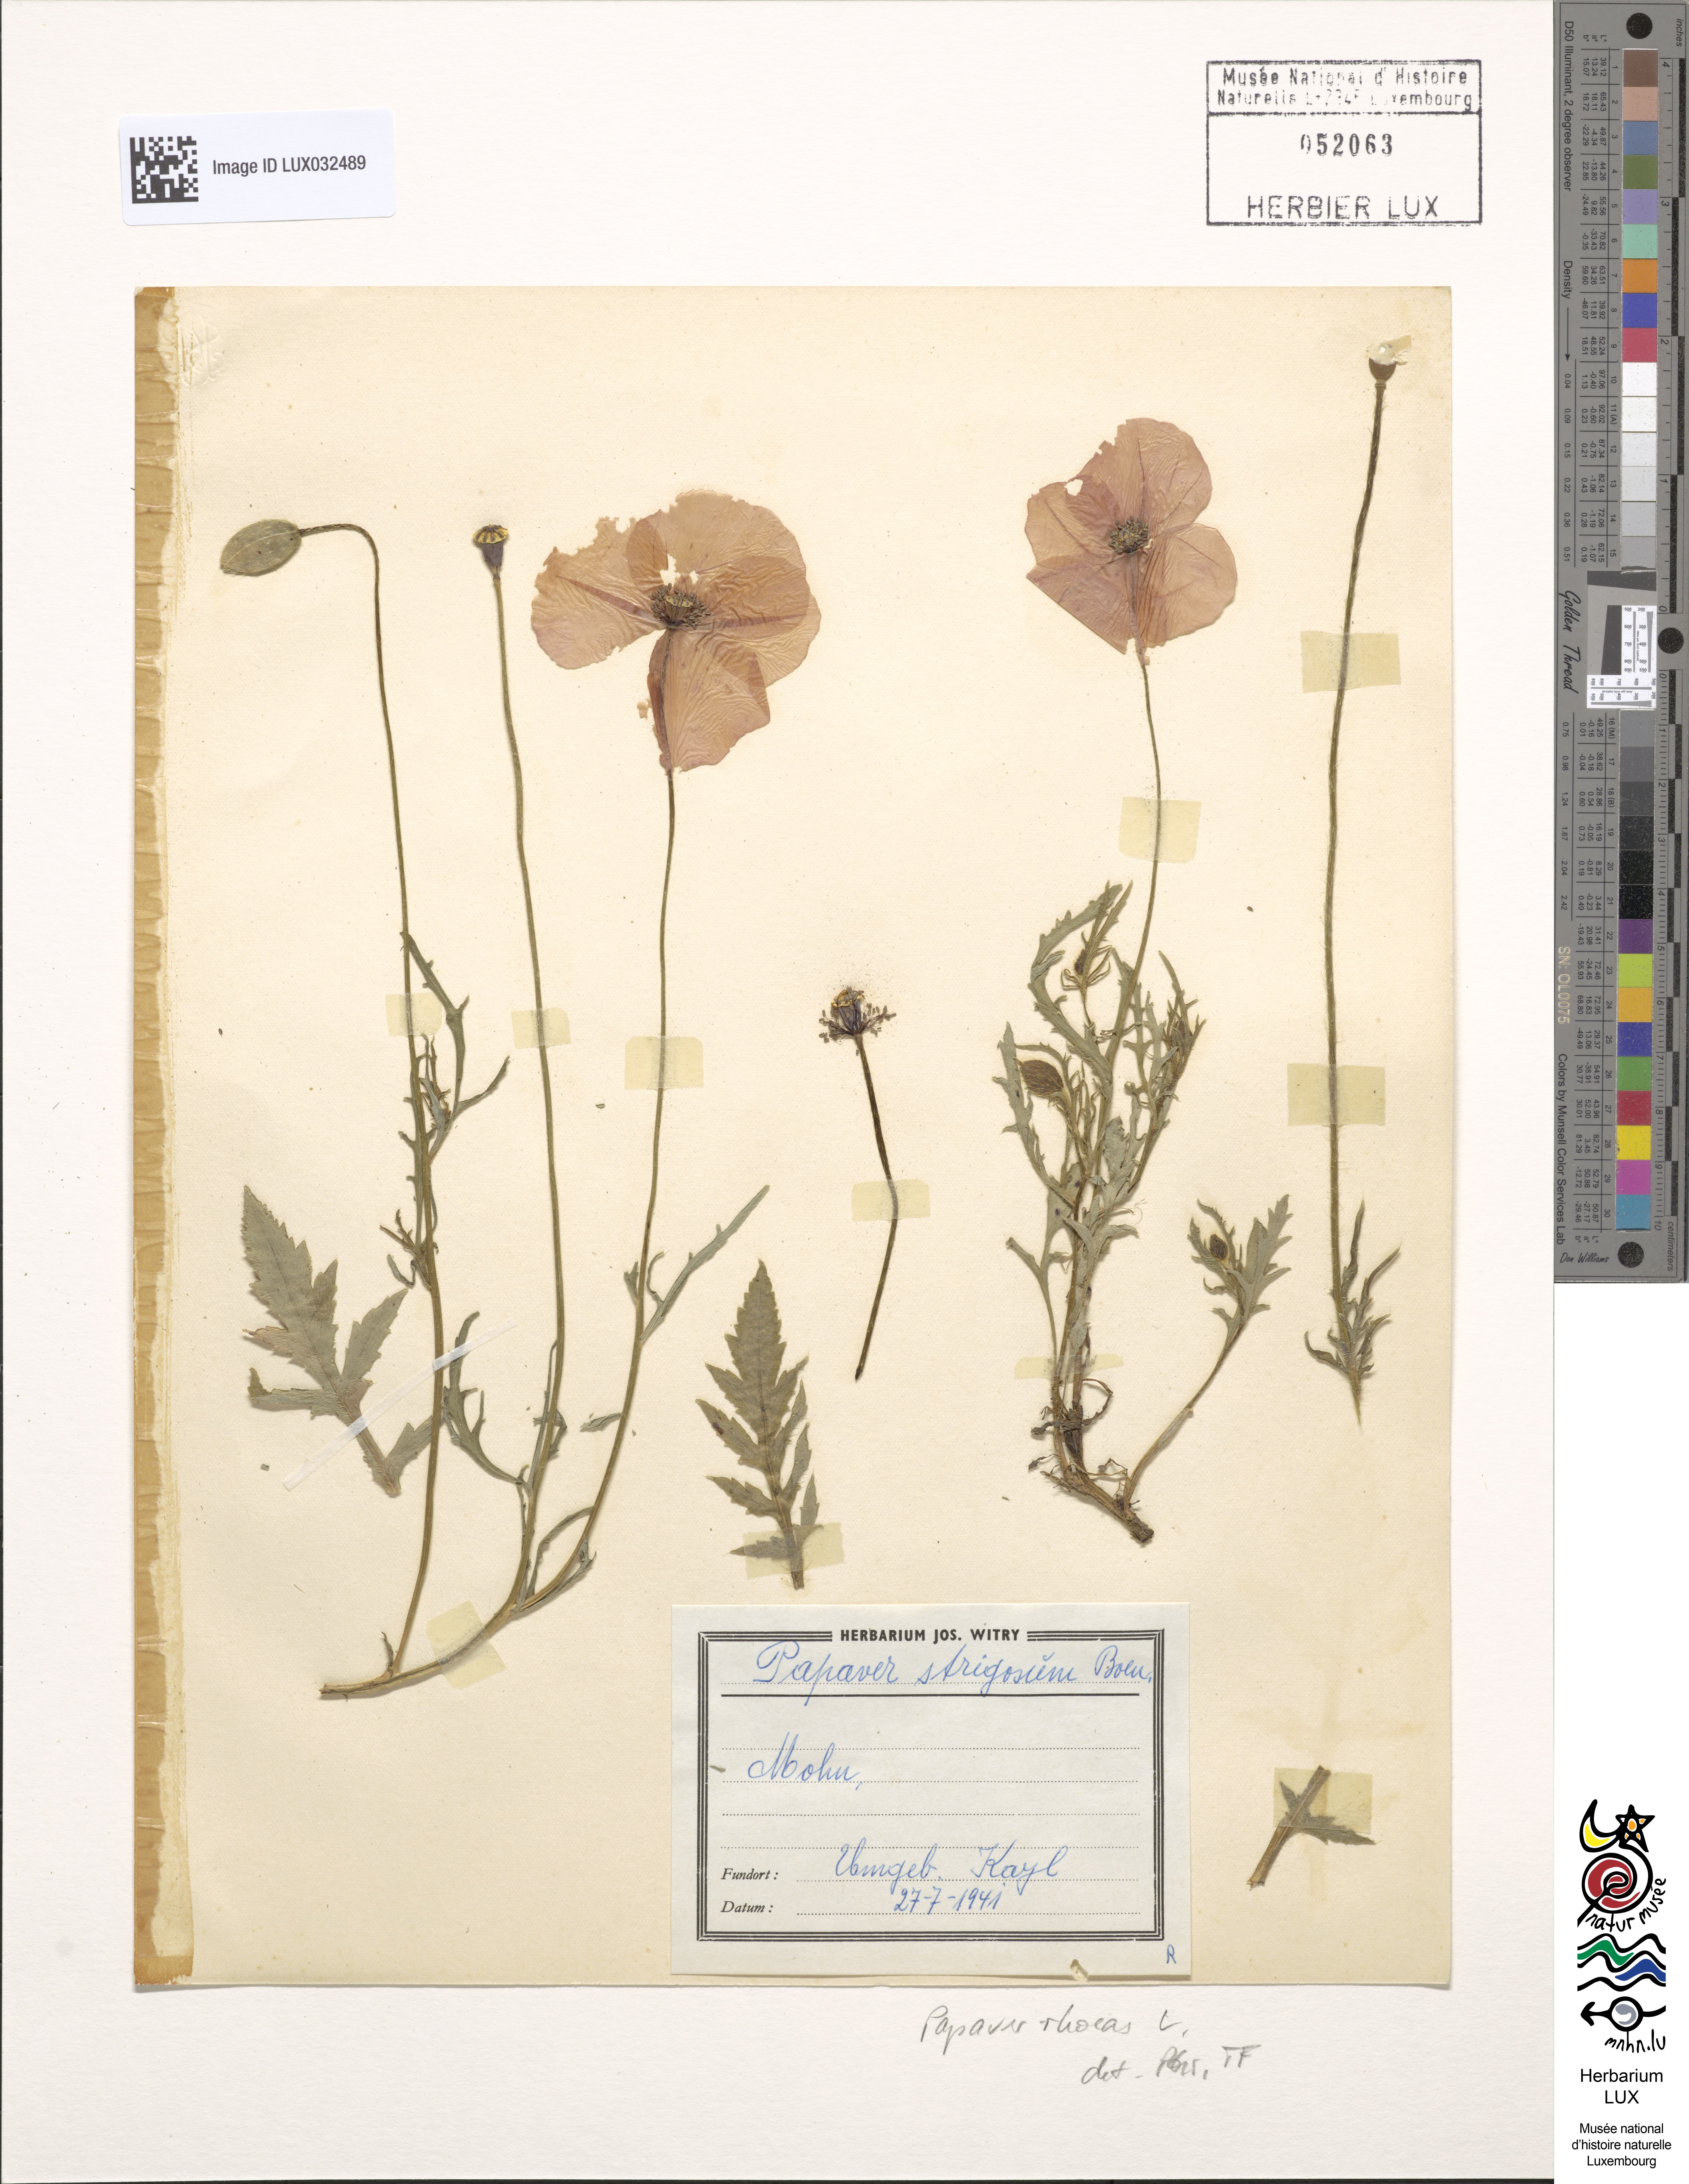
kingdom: Plantae
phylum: Tracheophyta
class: Magnoliopsida
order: Ranunculales
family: Papaveraceae
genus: Papaver
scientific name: Papaver rhoeas
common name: Corn poppy
